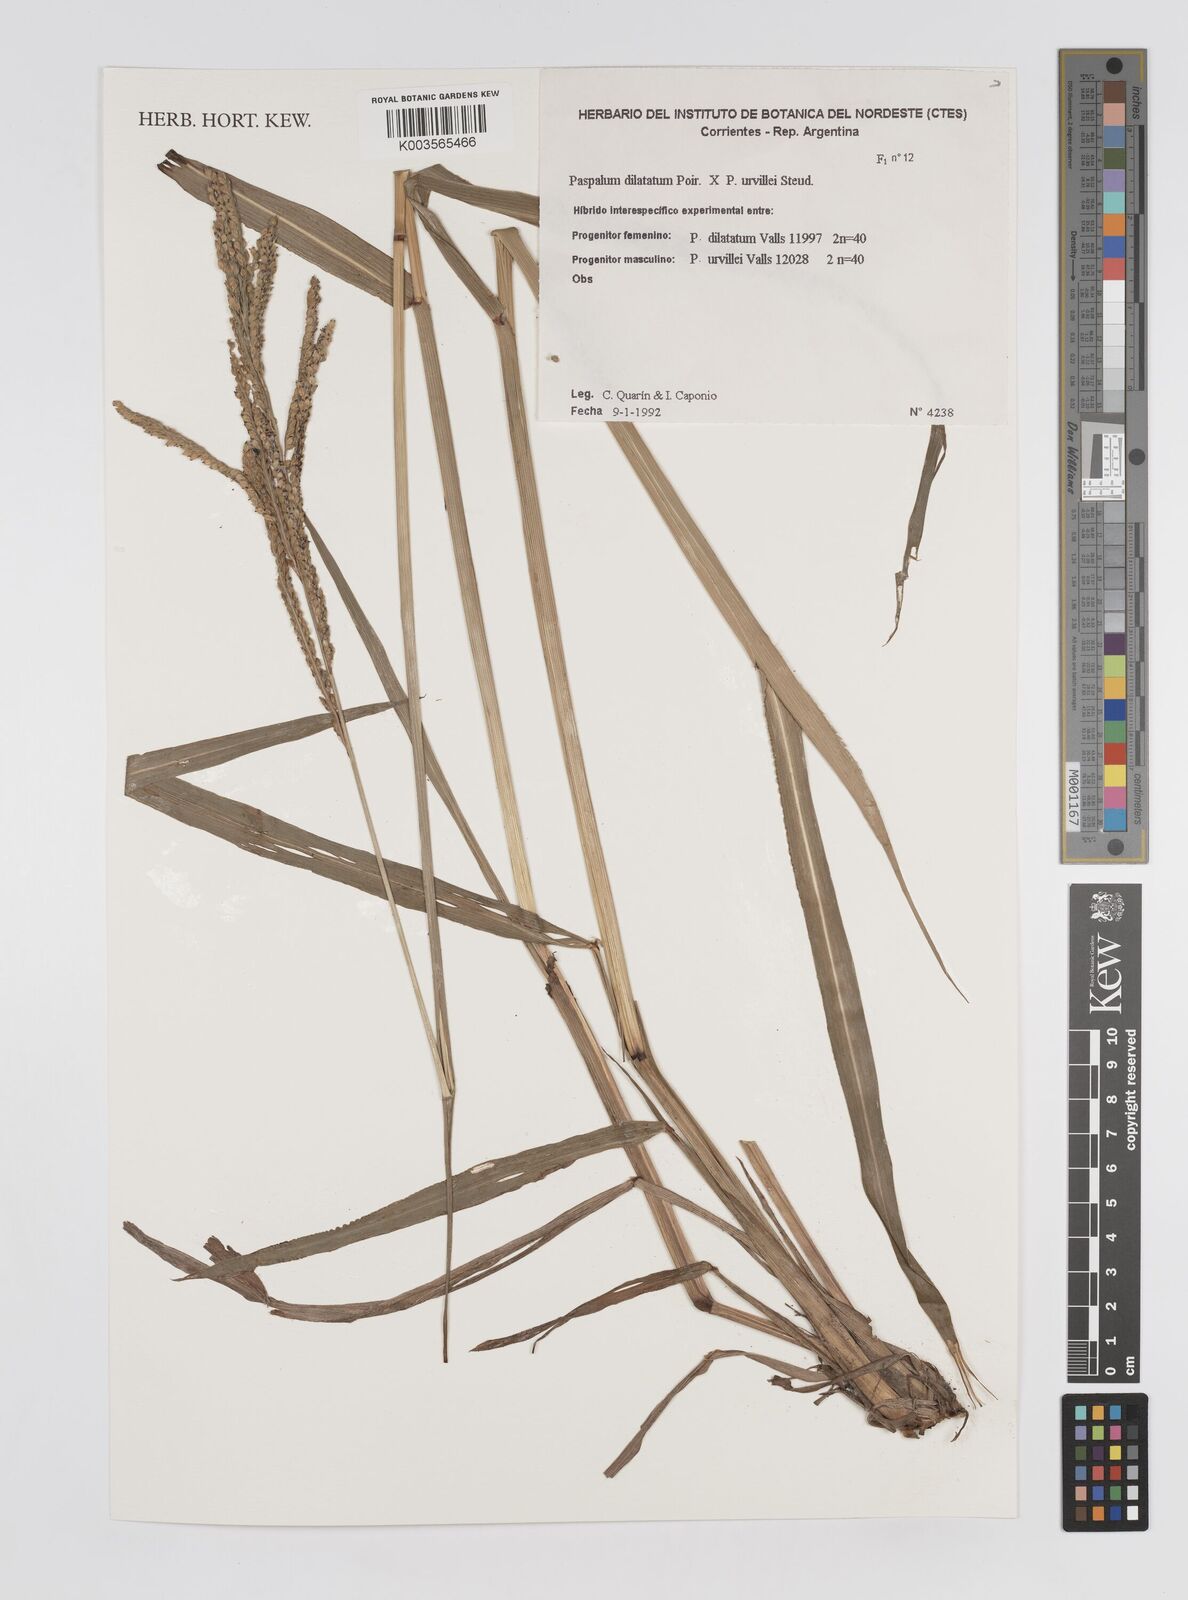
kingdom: Plantae
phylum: Tracheophyta
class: Liliopsida
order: Poales
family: Poaceae
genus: Paspalum
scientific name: Paspalum dilatatum
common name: Dallisgrass
